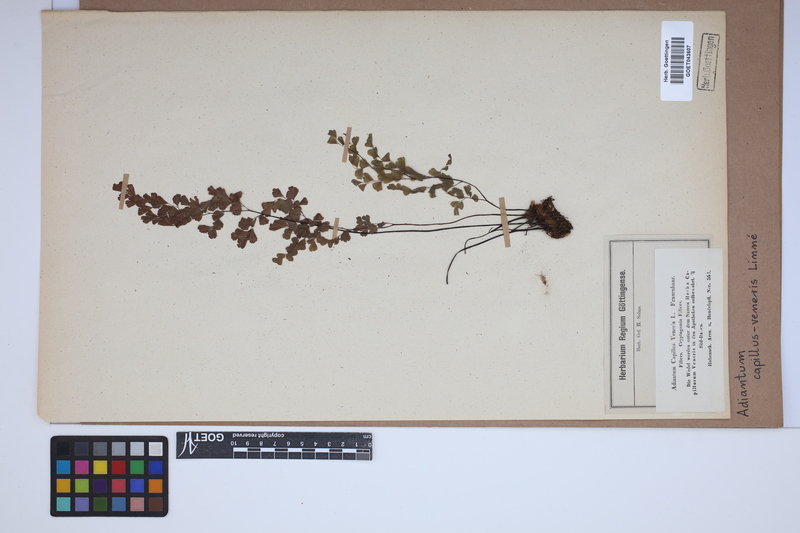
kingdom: Plantae
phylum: Tracheophyta
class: Polypodiopsida
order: Polypodiales
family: Pteridaceae
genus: Adiantum
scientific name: Adiantum capillus-veneris
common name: Maidenhair fern
